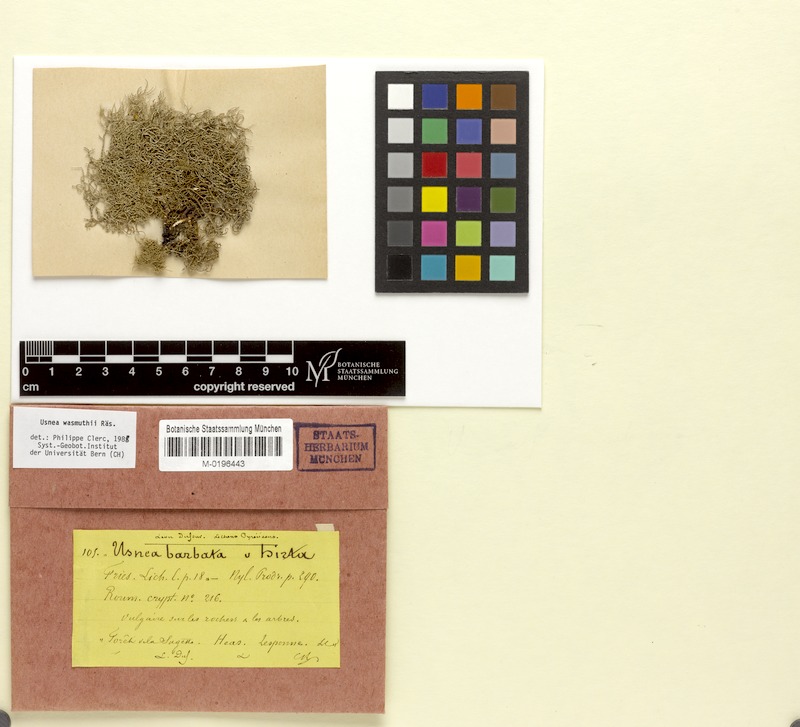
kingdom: Fungi
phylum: Ascomycota
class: Lecanoromycetes
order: Lecanorales
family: Parmeliaceae
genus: Usnea
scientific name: Usnea wasmuthii
